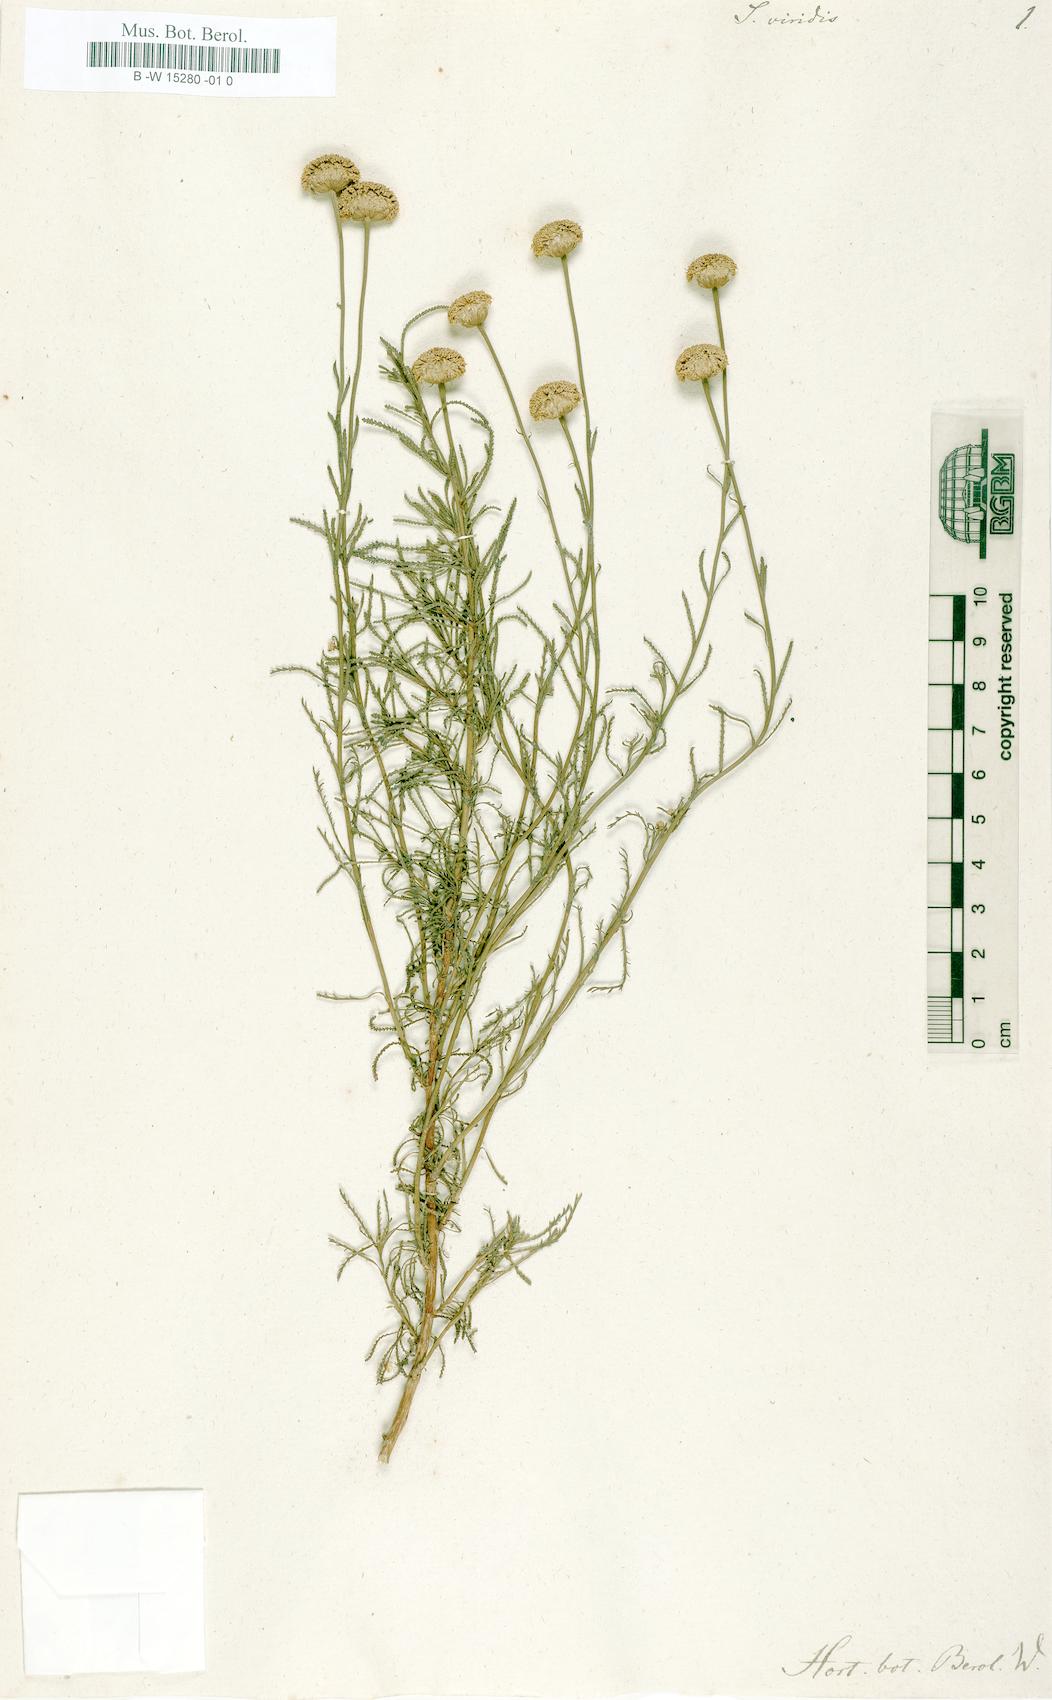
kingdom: Plantae
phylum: Tracheophyta
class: Magnoliopsida
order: Asterales
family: Asteraceae
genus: Santolina
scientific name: Santolina viridis
